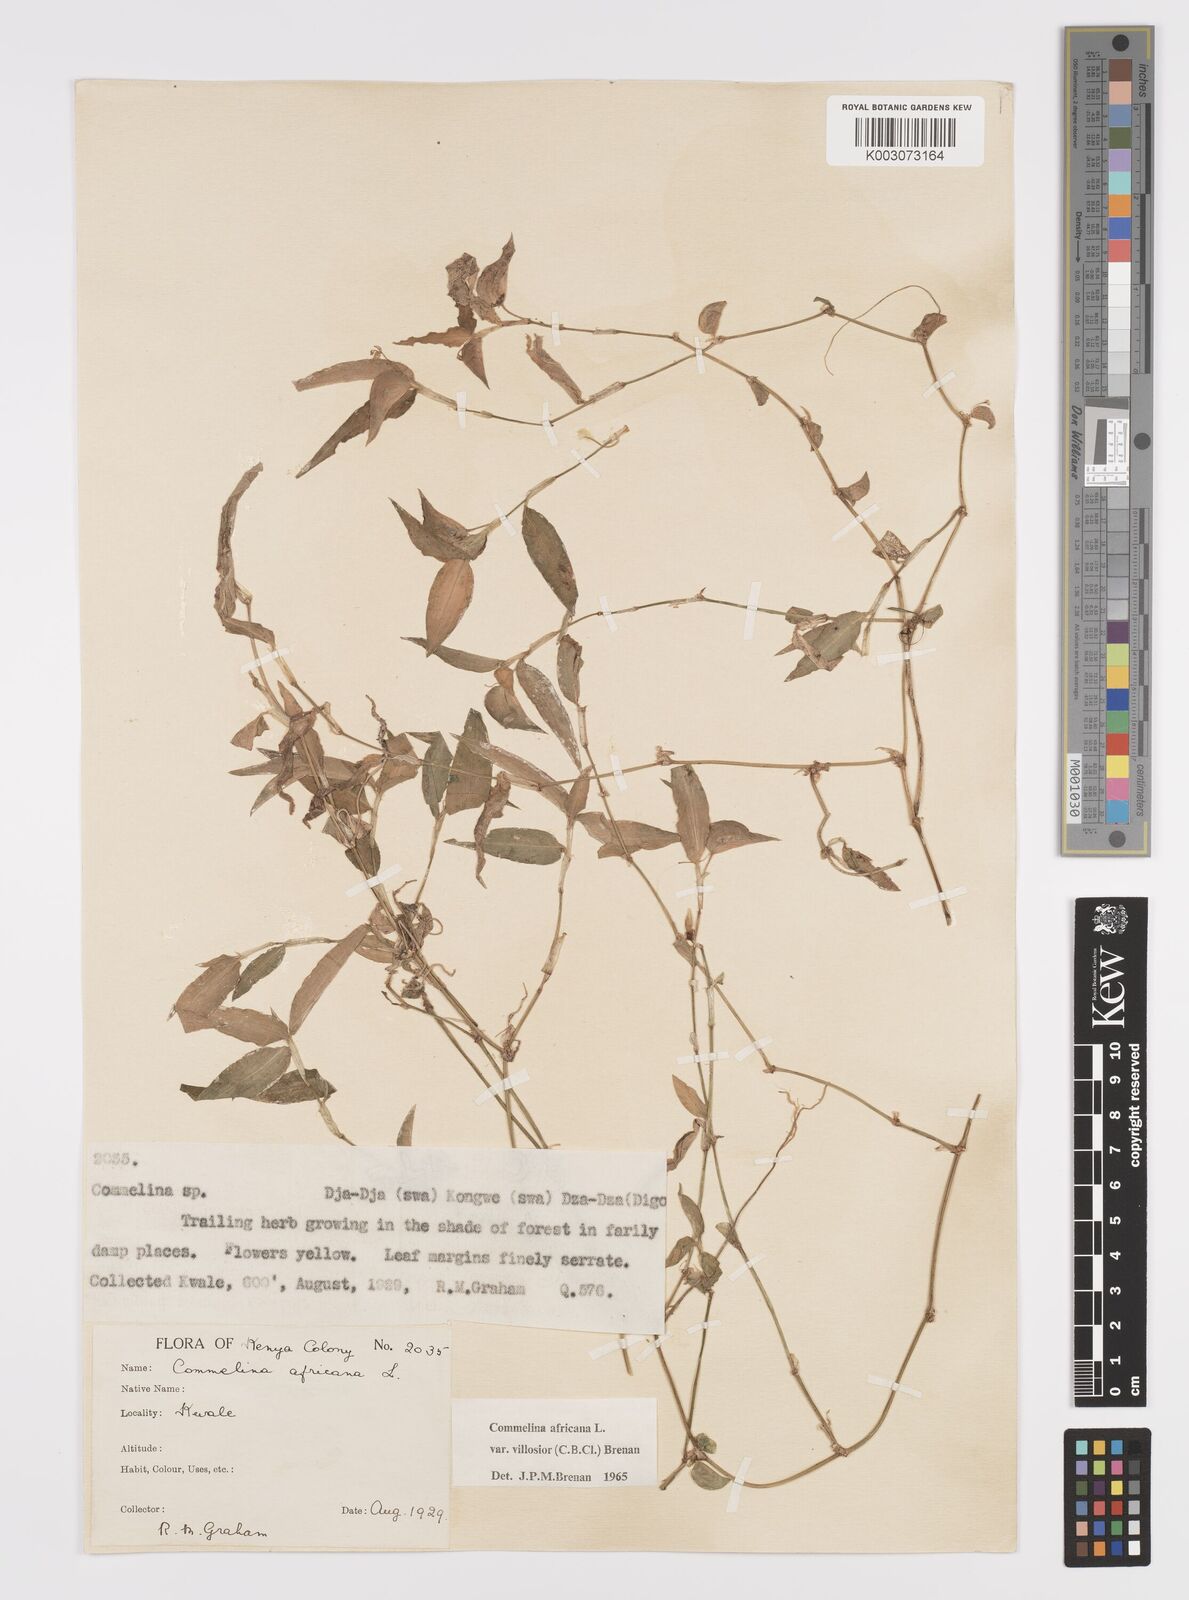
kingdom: Plantae
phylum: Tracheophyta
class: Liliopsida
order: Commelinales
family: Commelinaceae
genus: Commelina
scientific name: Commelina africana
